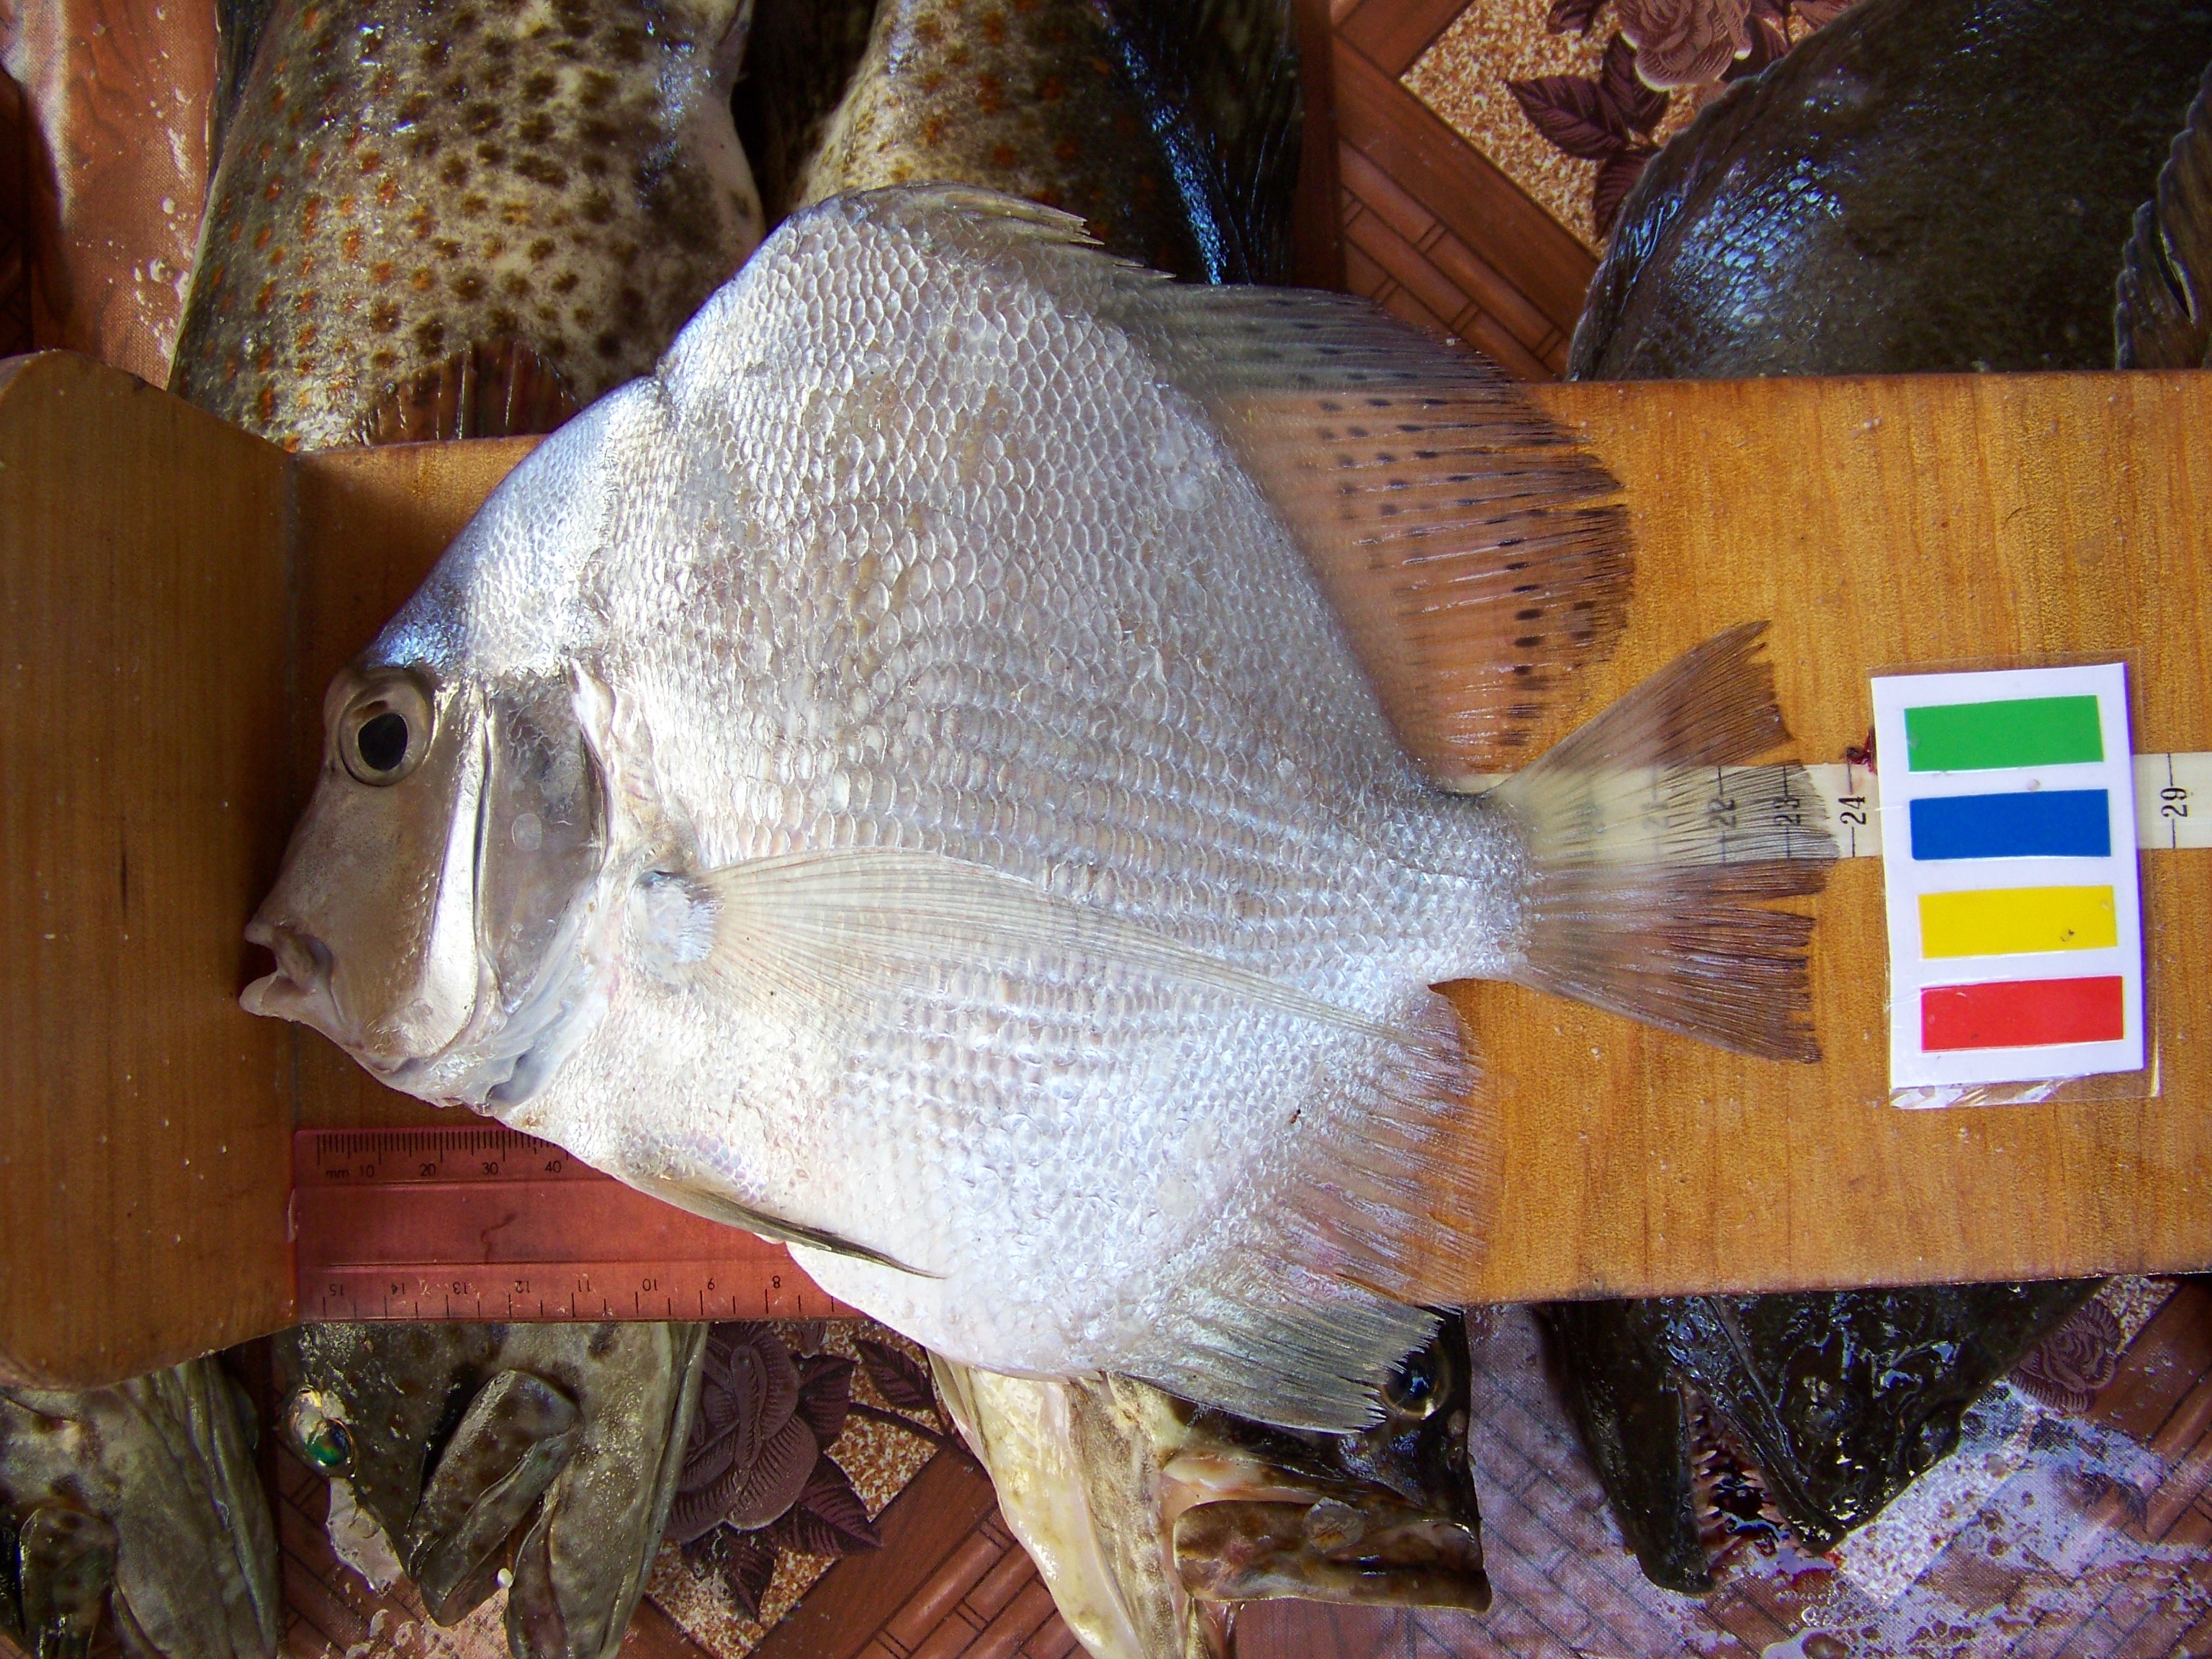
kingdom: Animalia
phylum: Chordata
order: Perciformes
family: Drepaneidae
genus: Drepane
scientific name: Drepane longimana
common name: Concertina fish
